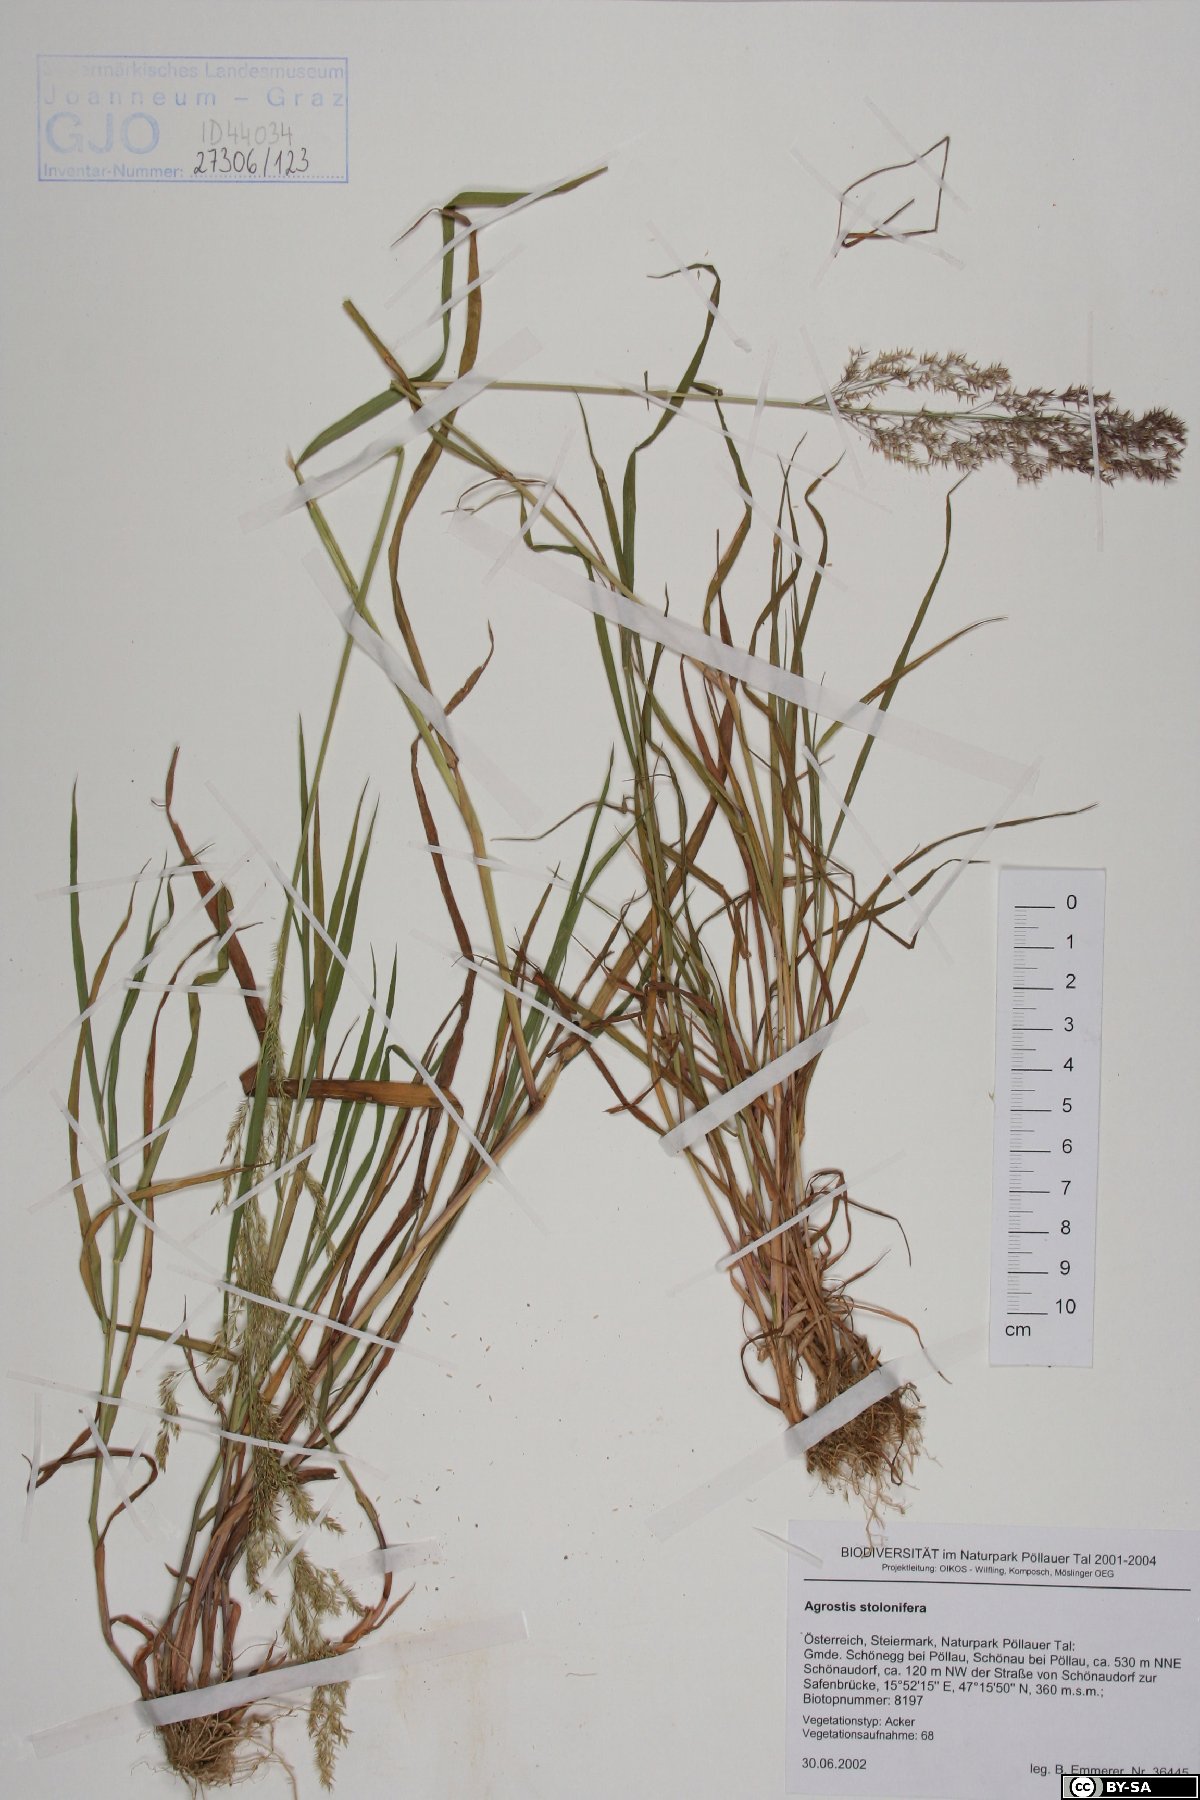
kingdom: Plantae
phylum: Tracheophyta
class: Liliopsida
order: Poales
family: Poaceae
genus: Agrostis
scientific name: Agrostis stolonifera
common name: Creeping bentgrass
